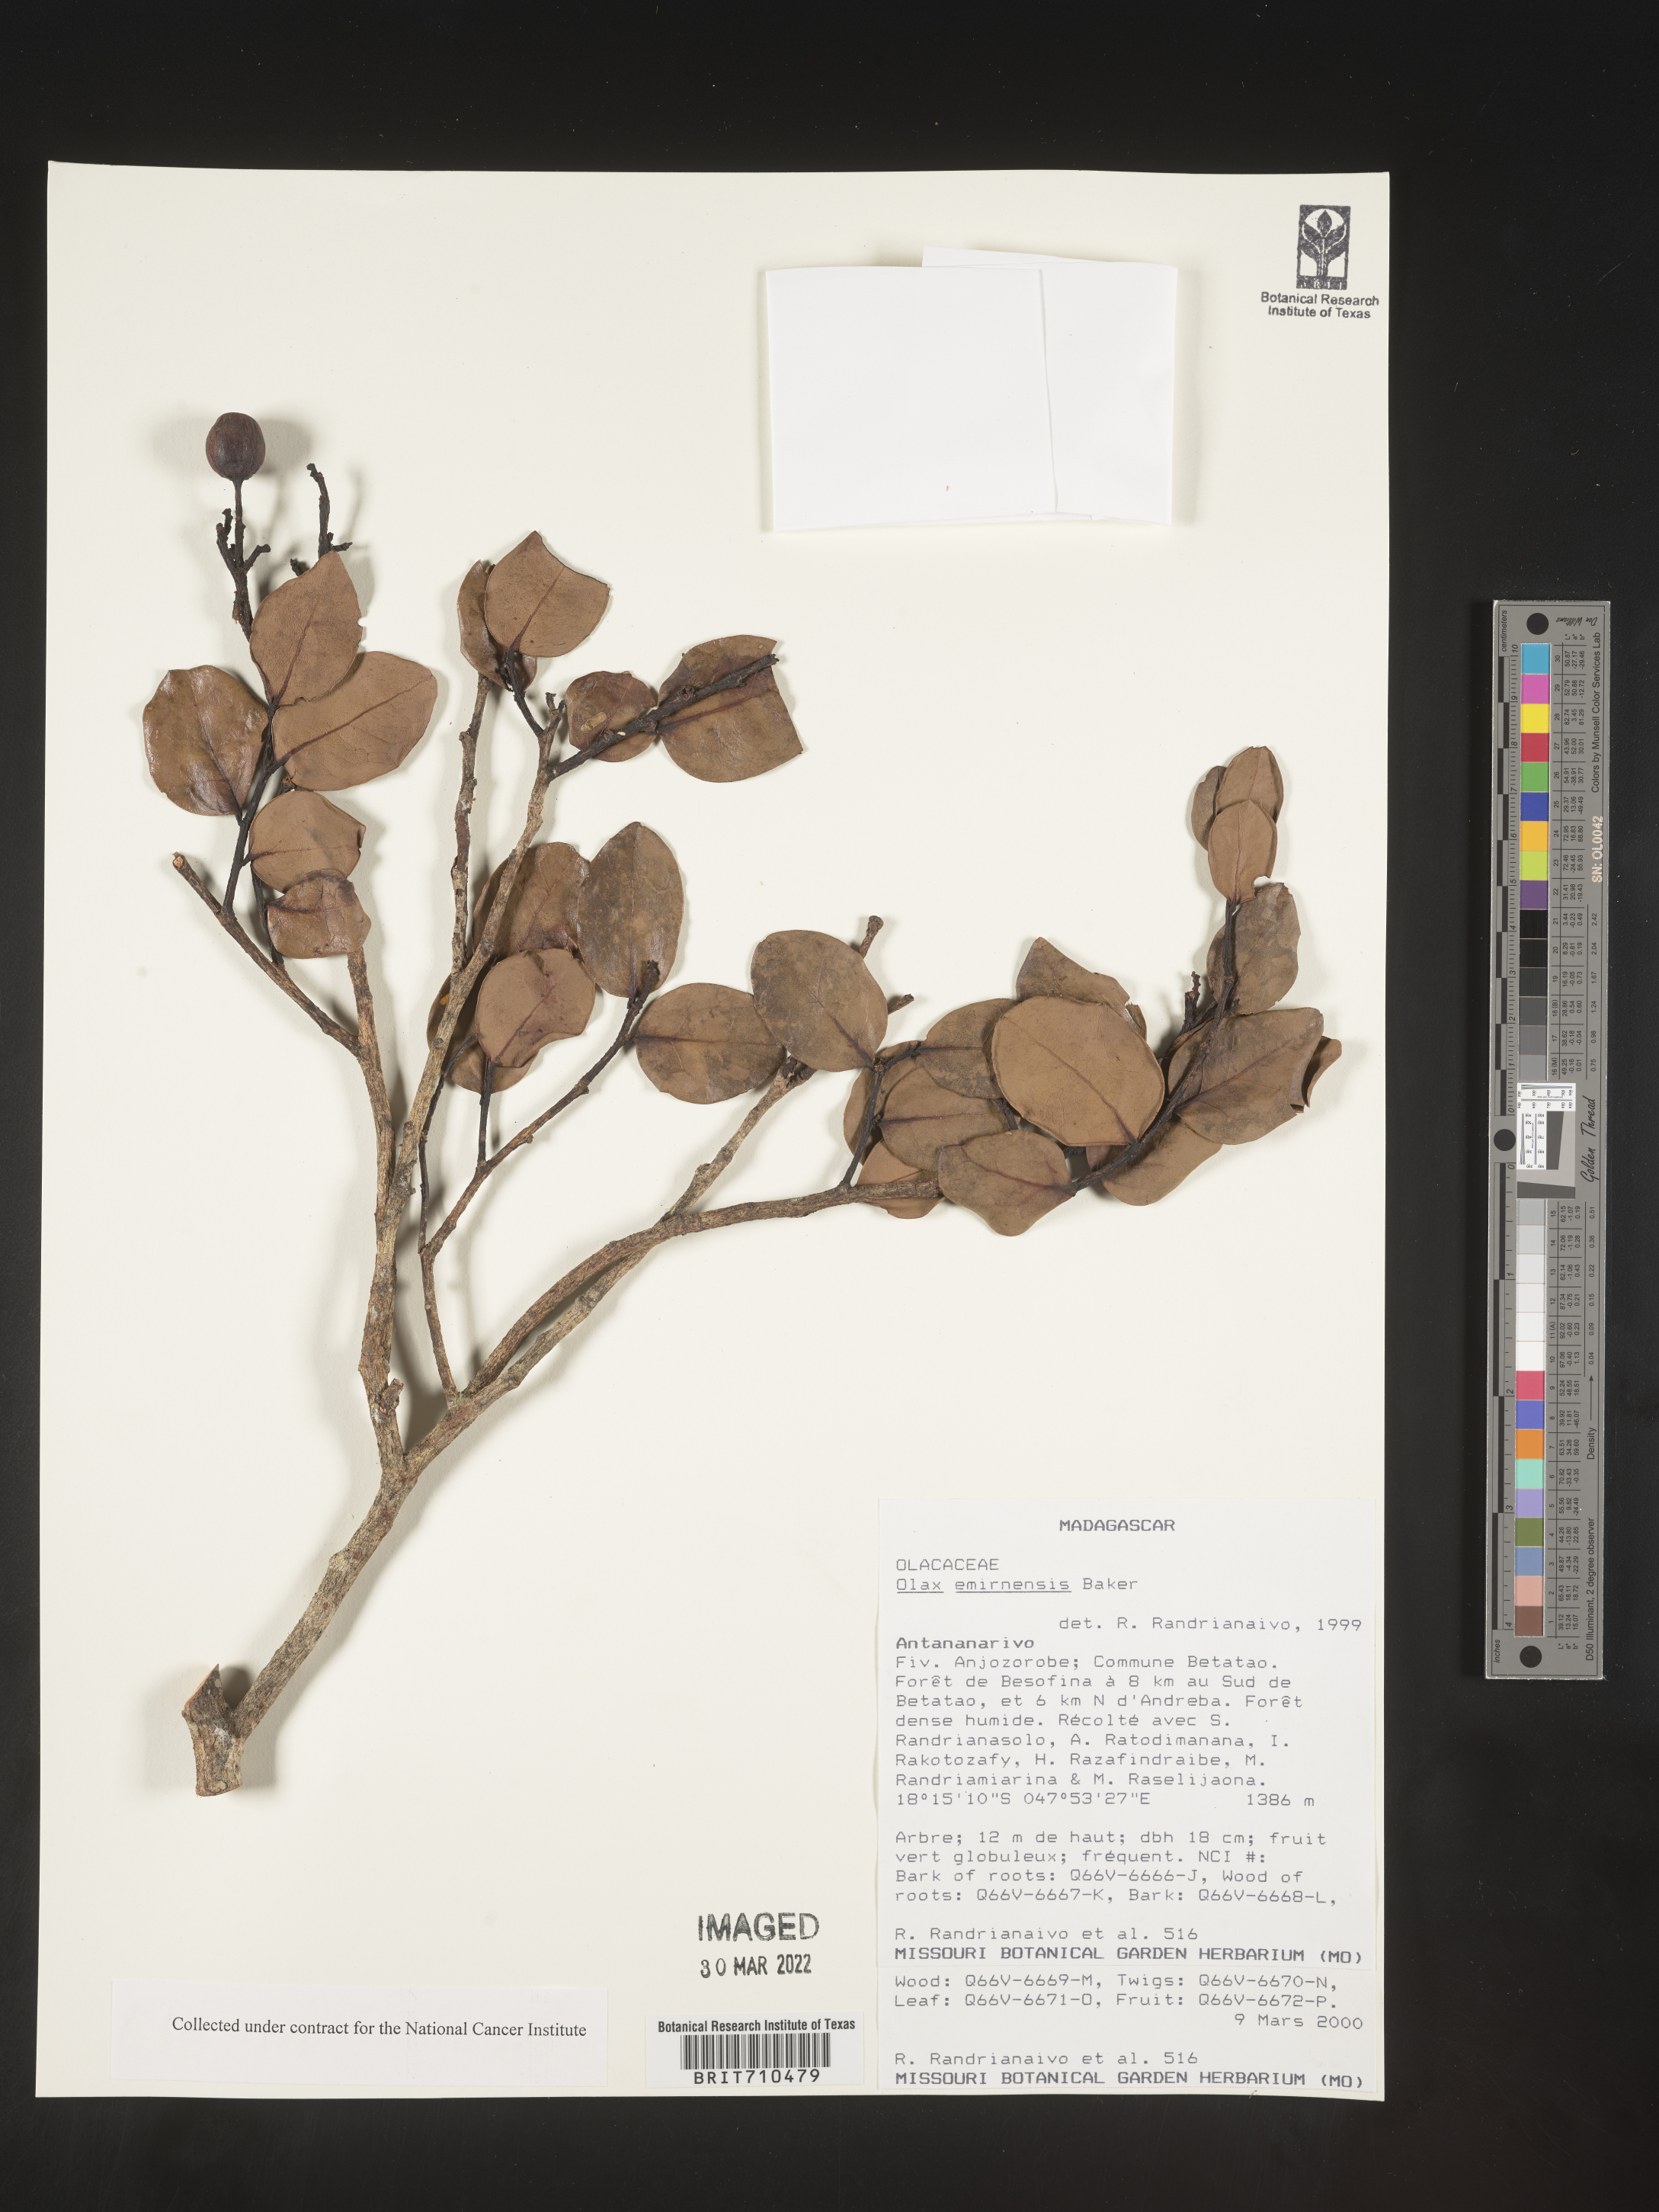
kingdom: Plantae
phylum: Tracheophyta
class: Magnoliopsida
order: Santalales
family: Olacaceae
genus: Olax
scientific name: Olax
